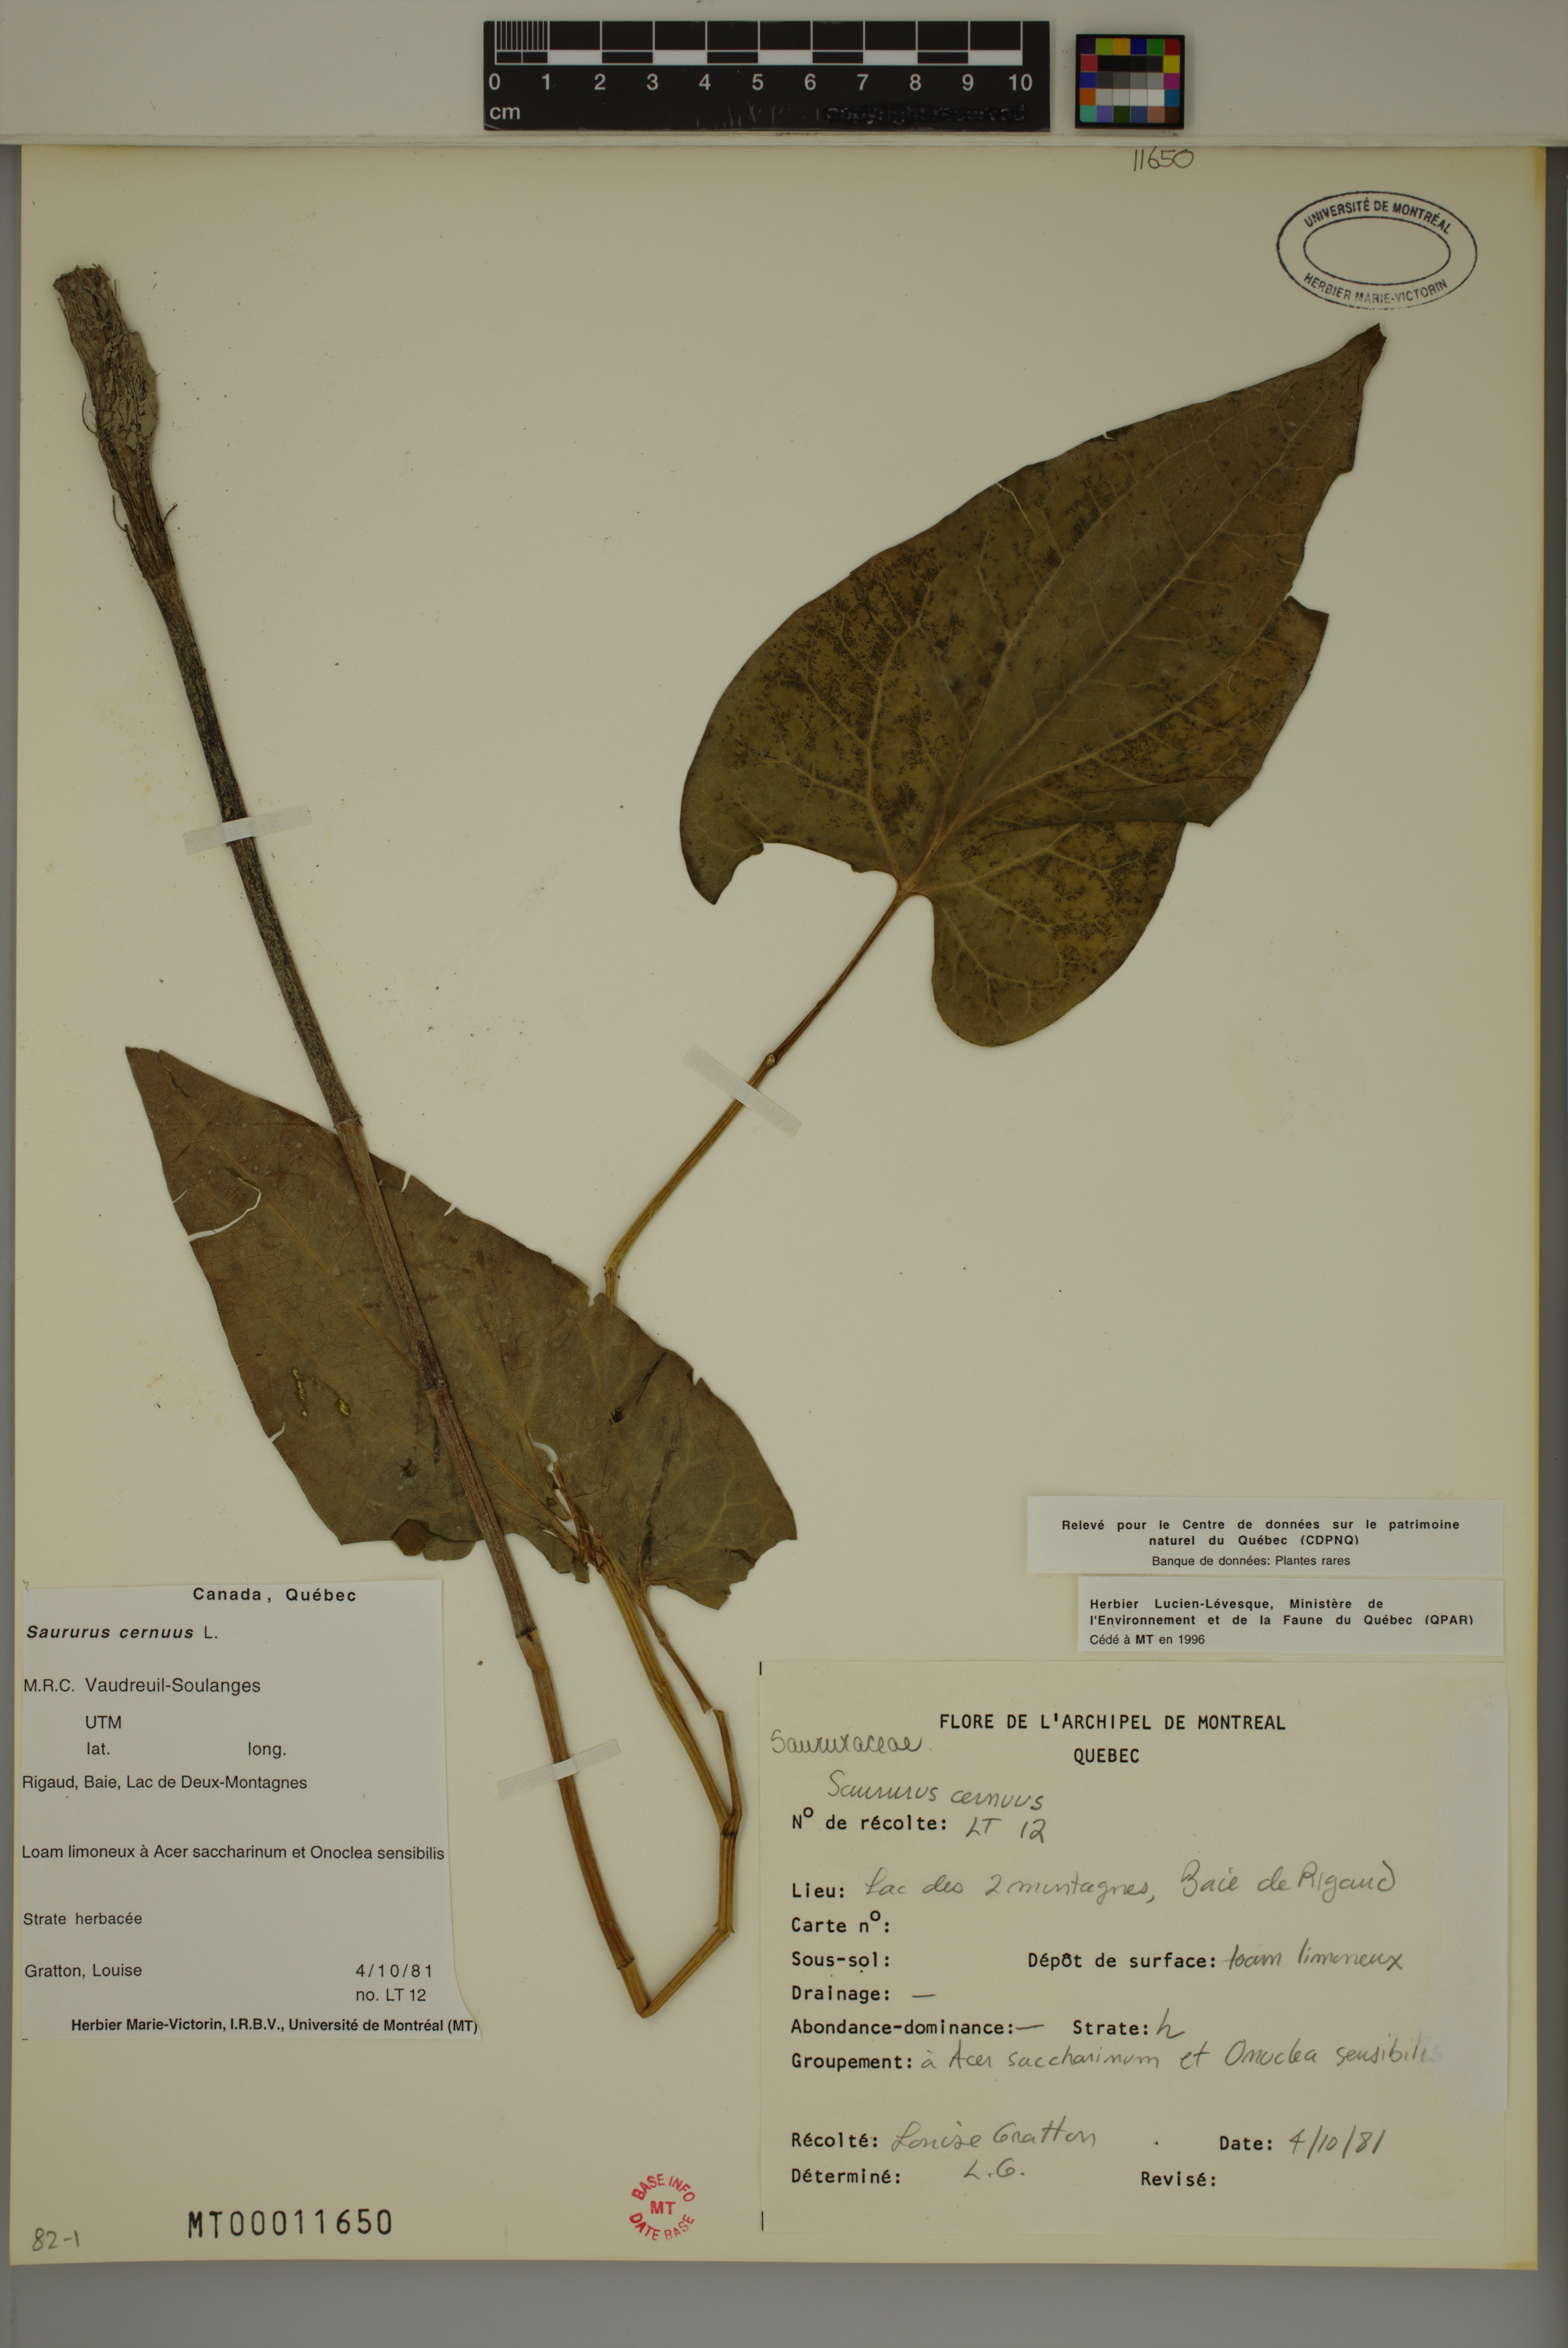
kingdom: Plantae
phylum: Tracheophyta
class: Magnoliopsida
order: Piperales
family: Saururaceae
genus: Saururus
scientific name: Saururus cernuus
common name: Lizard's-tail
